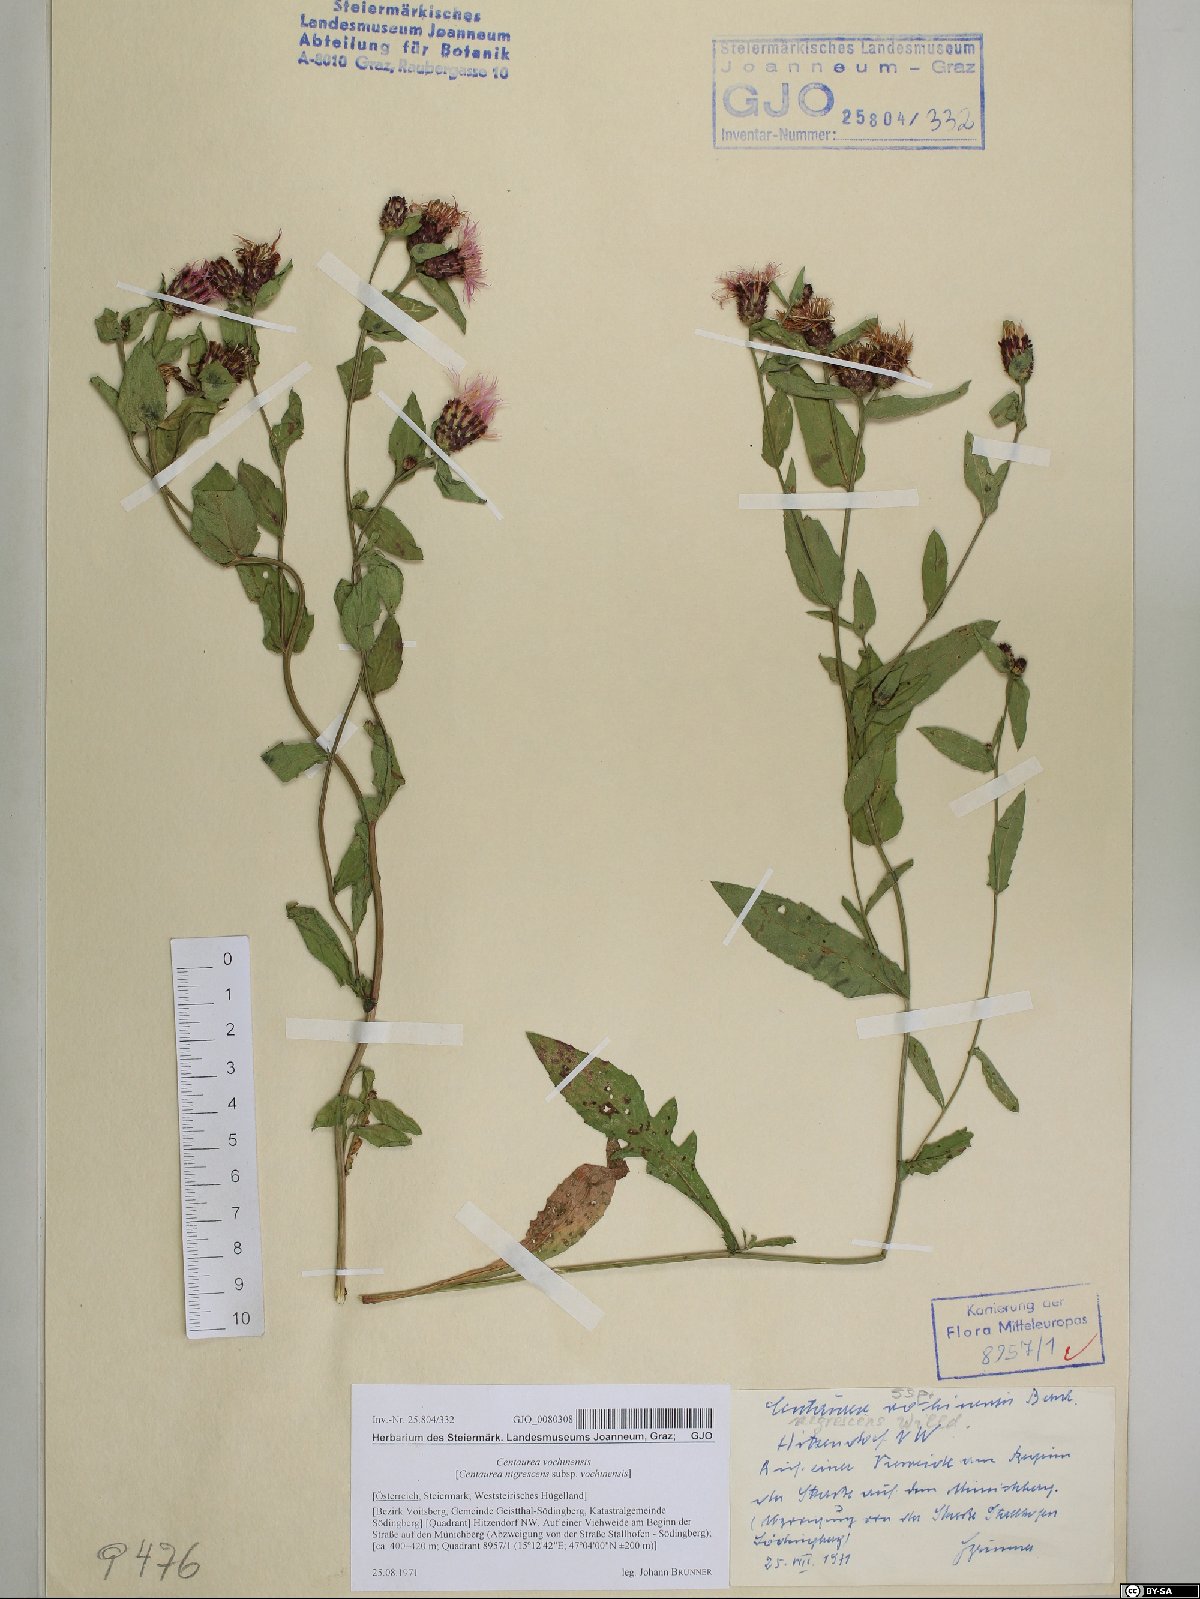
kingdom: Plantae
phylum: Tracheophyta
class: Magnoliopsida
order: Asterales
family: Asteraceae
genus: Centaurea
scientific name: Centaurea carniolica
